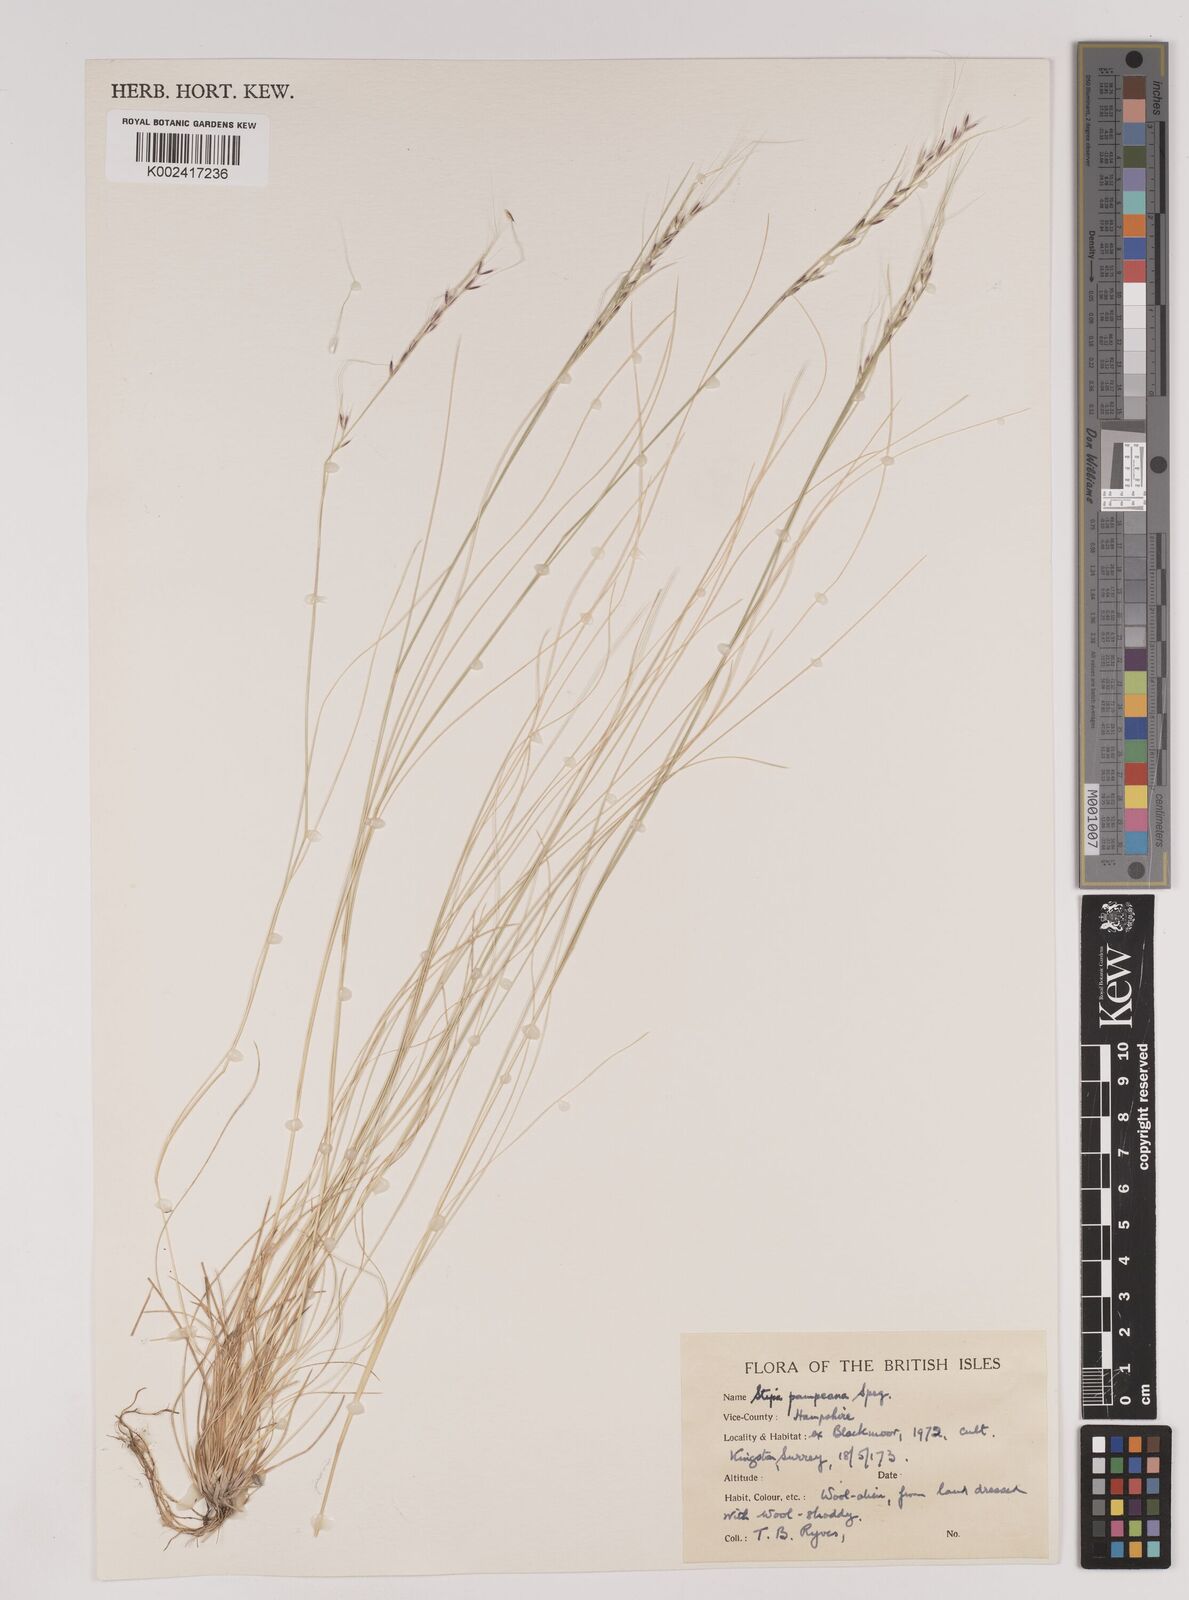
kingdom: Plantae
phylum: Tracheophyta
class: Liliopsida
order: Poales
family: Poaceae
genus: Nassella
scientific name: Nassella pampeana
